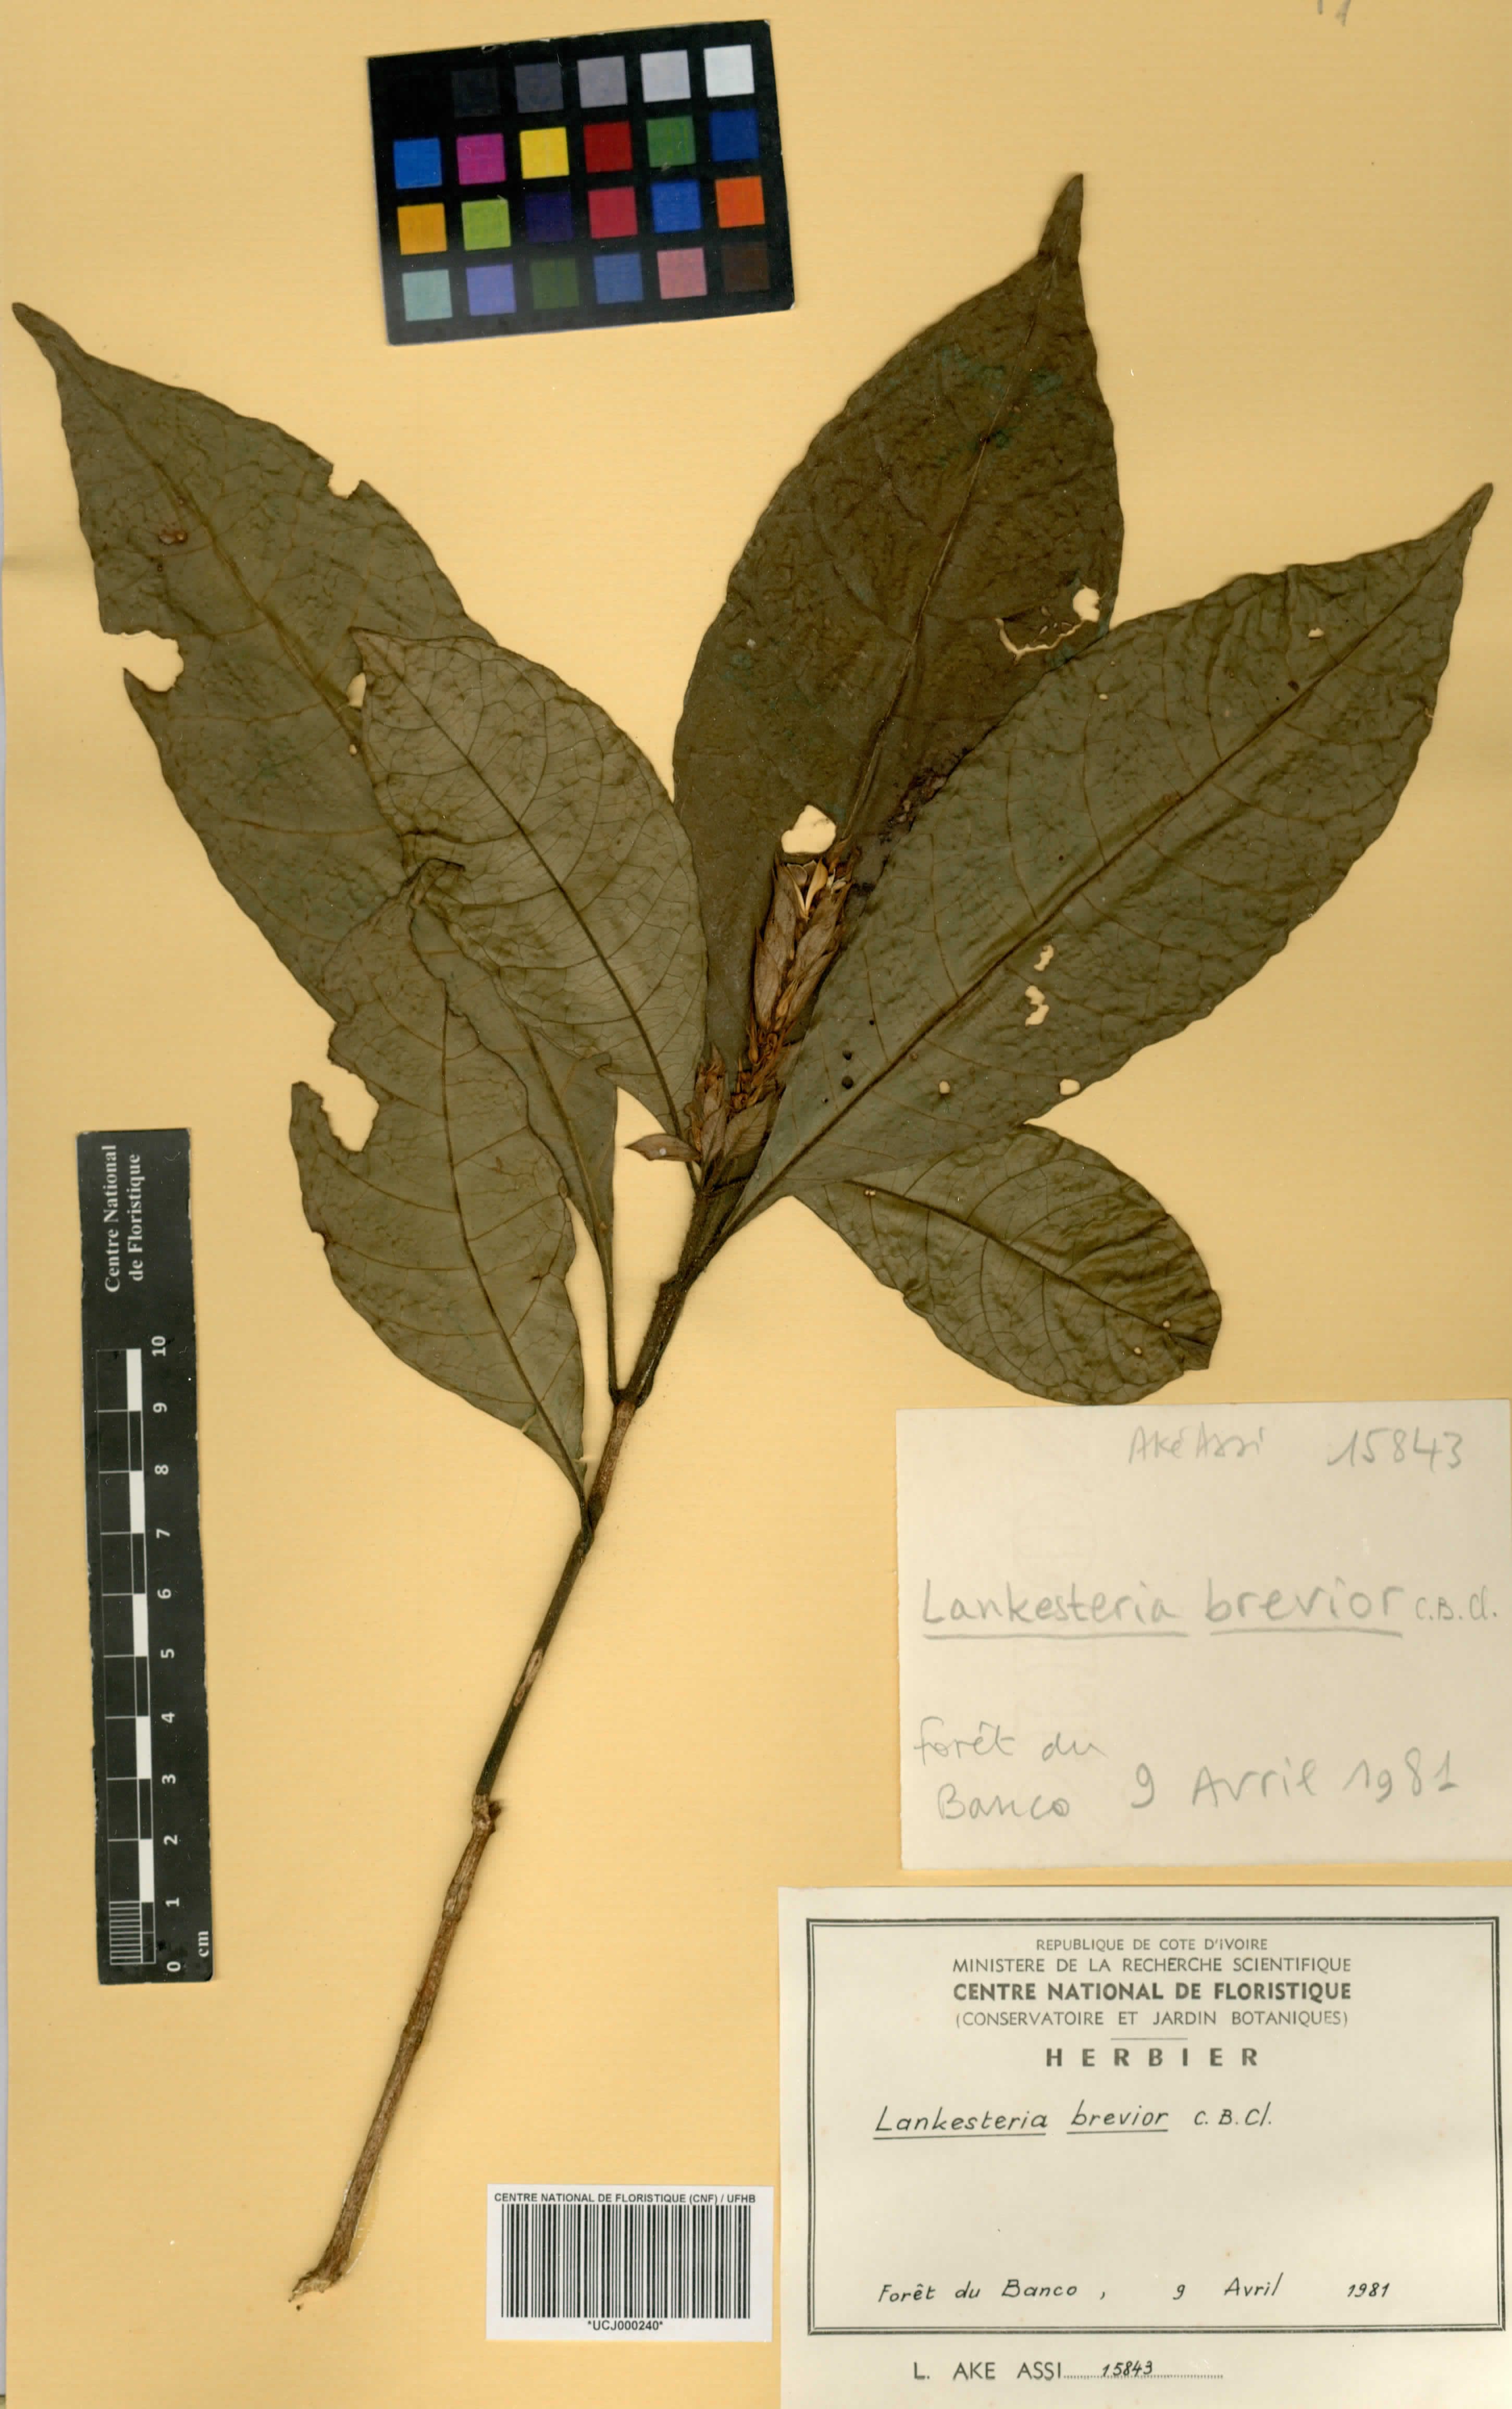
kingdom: Plantae
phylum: Tracheophyta
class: Magnoliopsida
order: Lamiales
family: Acanthaceae
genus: Lankesteria
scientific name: Lankesteria brevior
